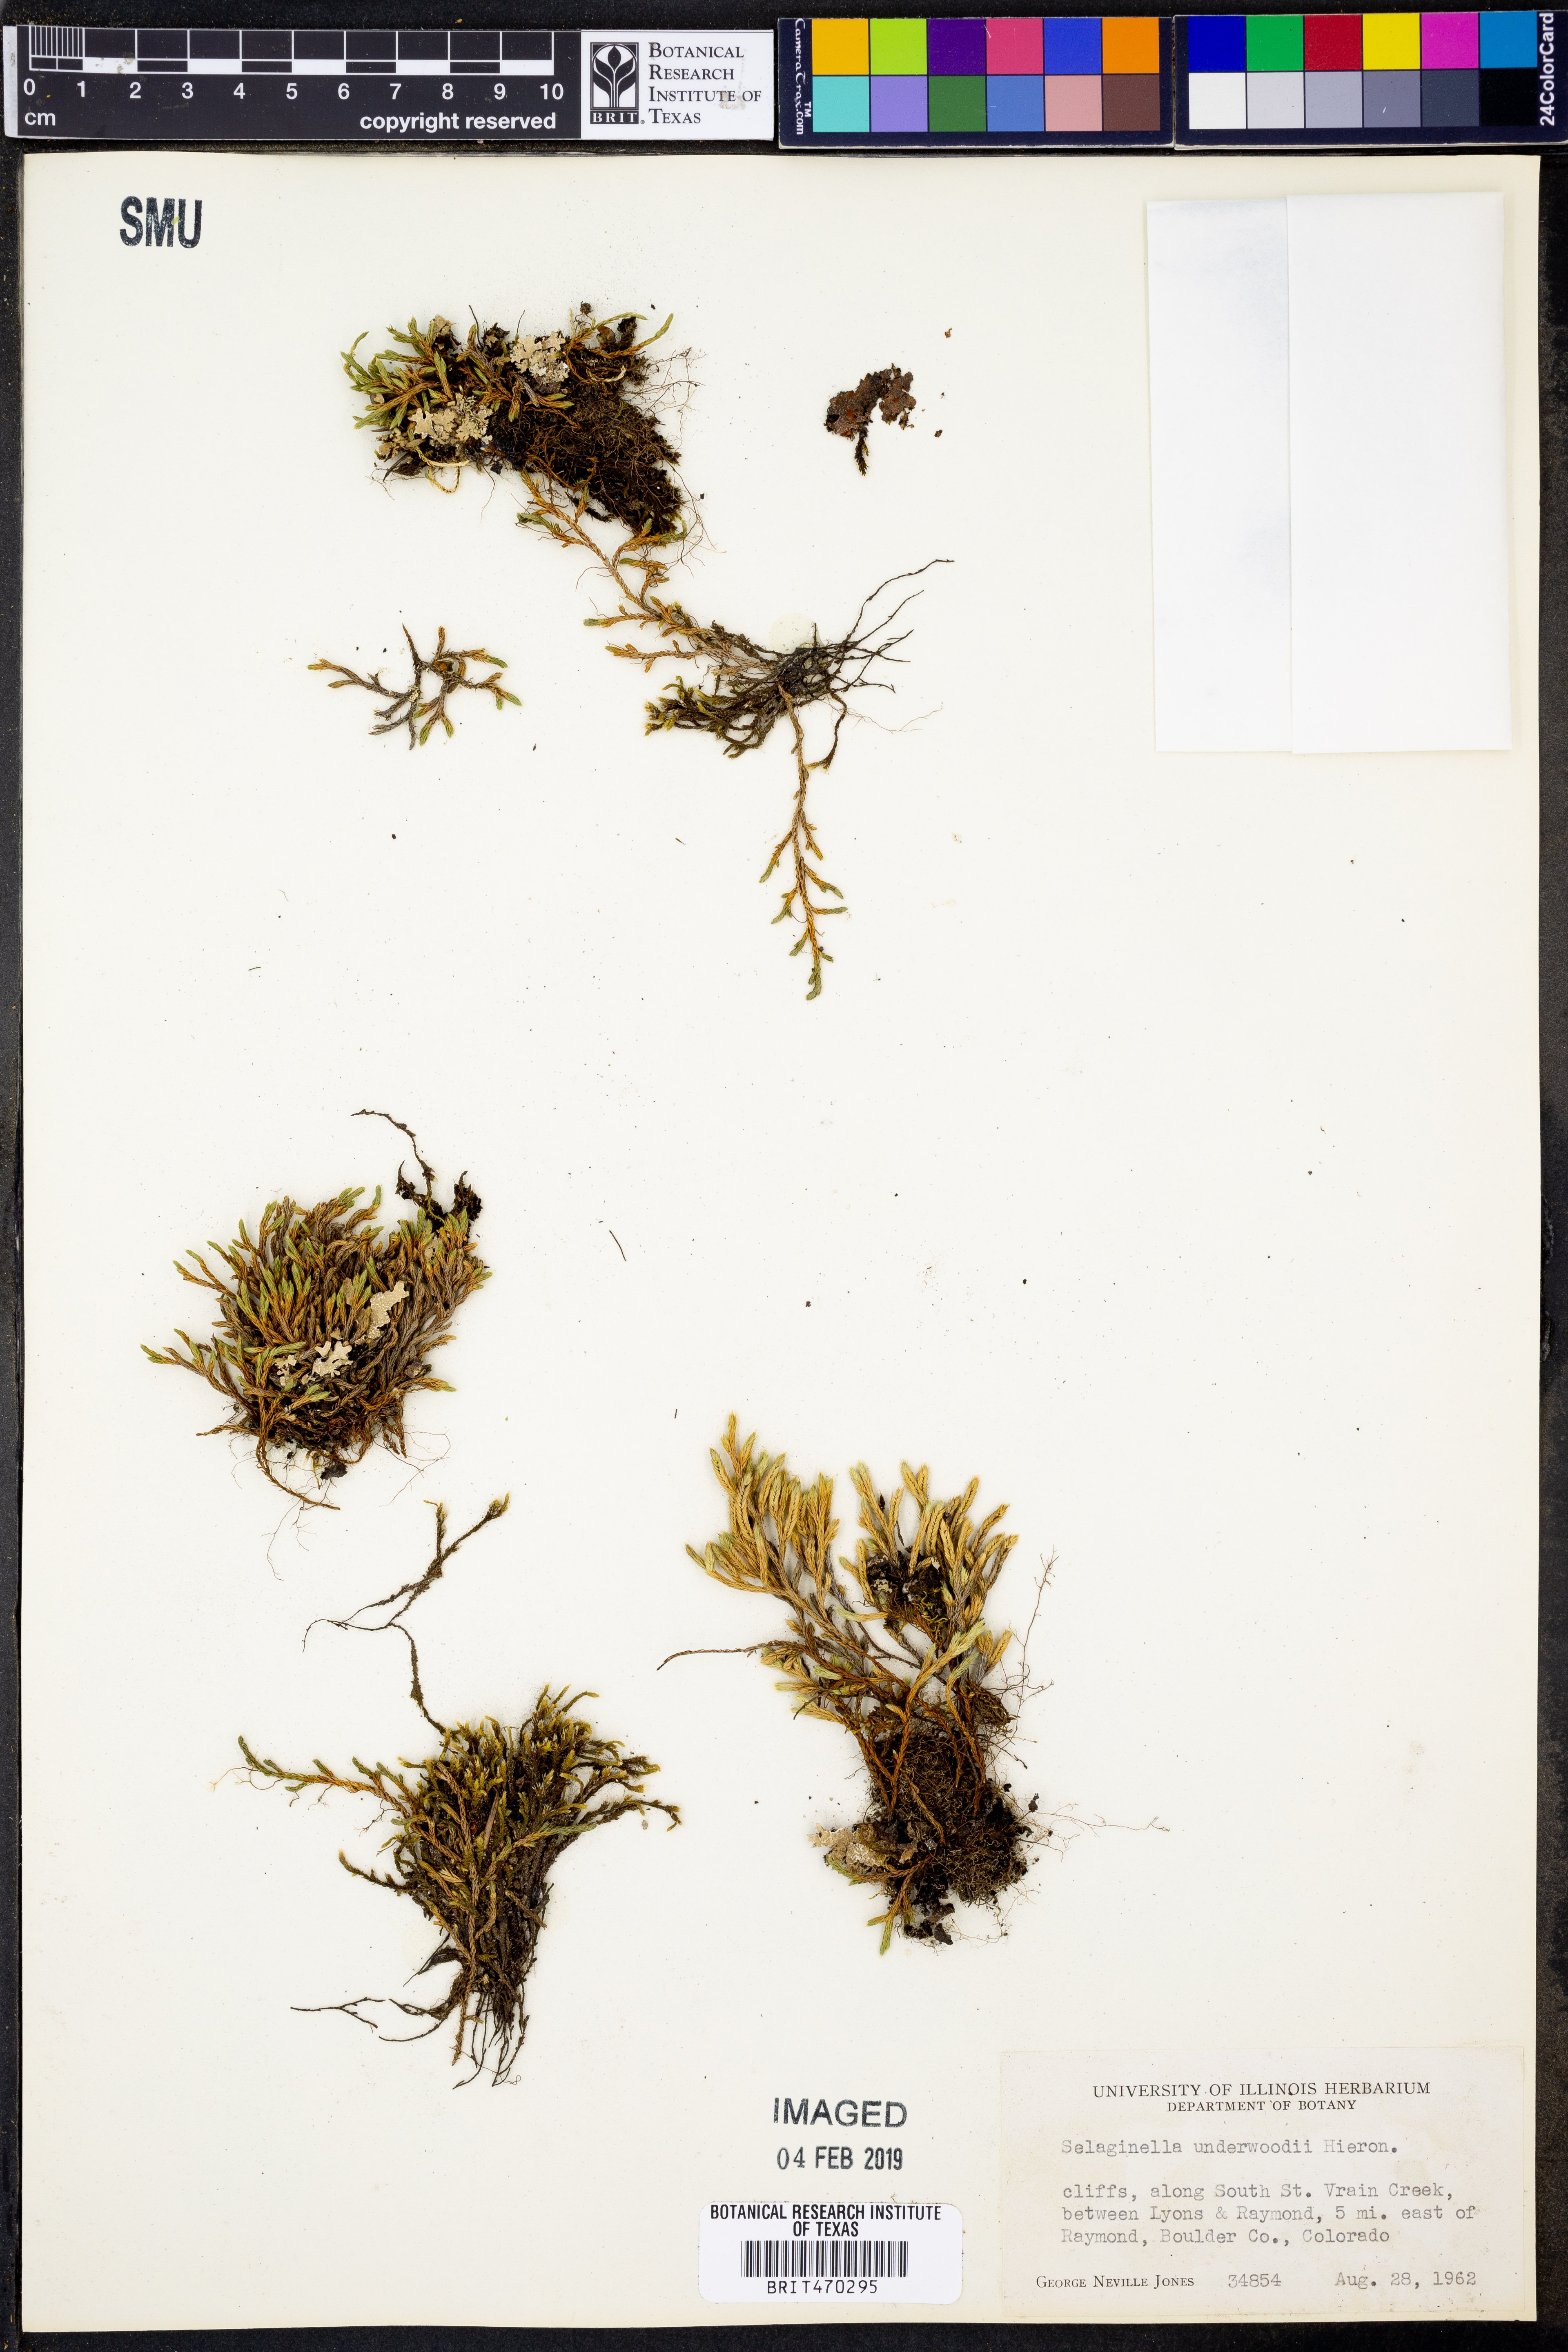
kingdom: Plantae
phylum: Tracheophyta
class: Lycopodiopsida
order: Selaginellales
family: Selaginellaceae
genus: Selaginella
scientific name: Selaginella underwoodii
